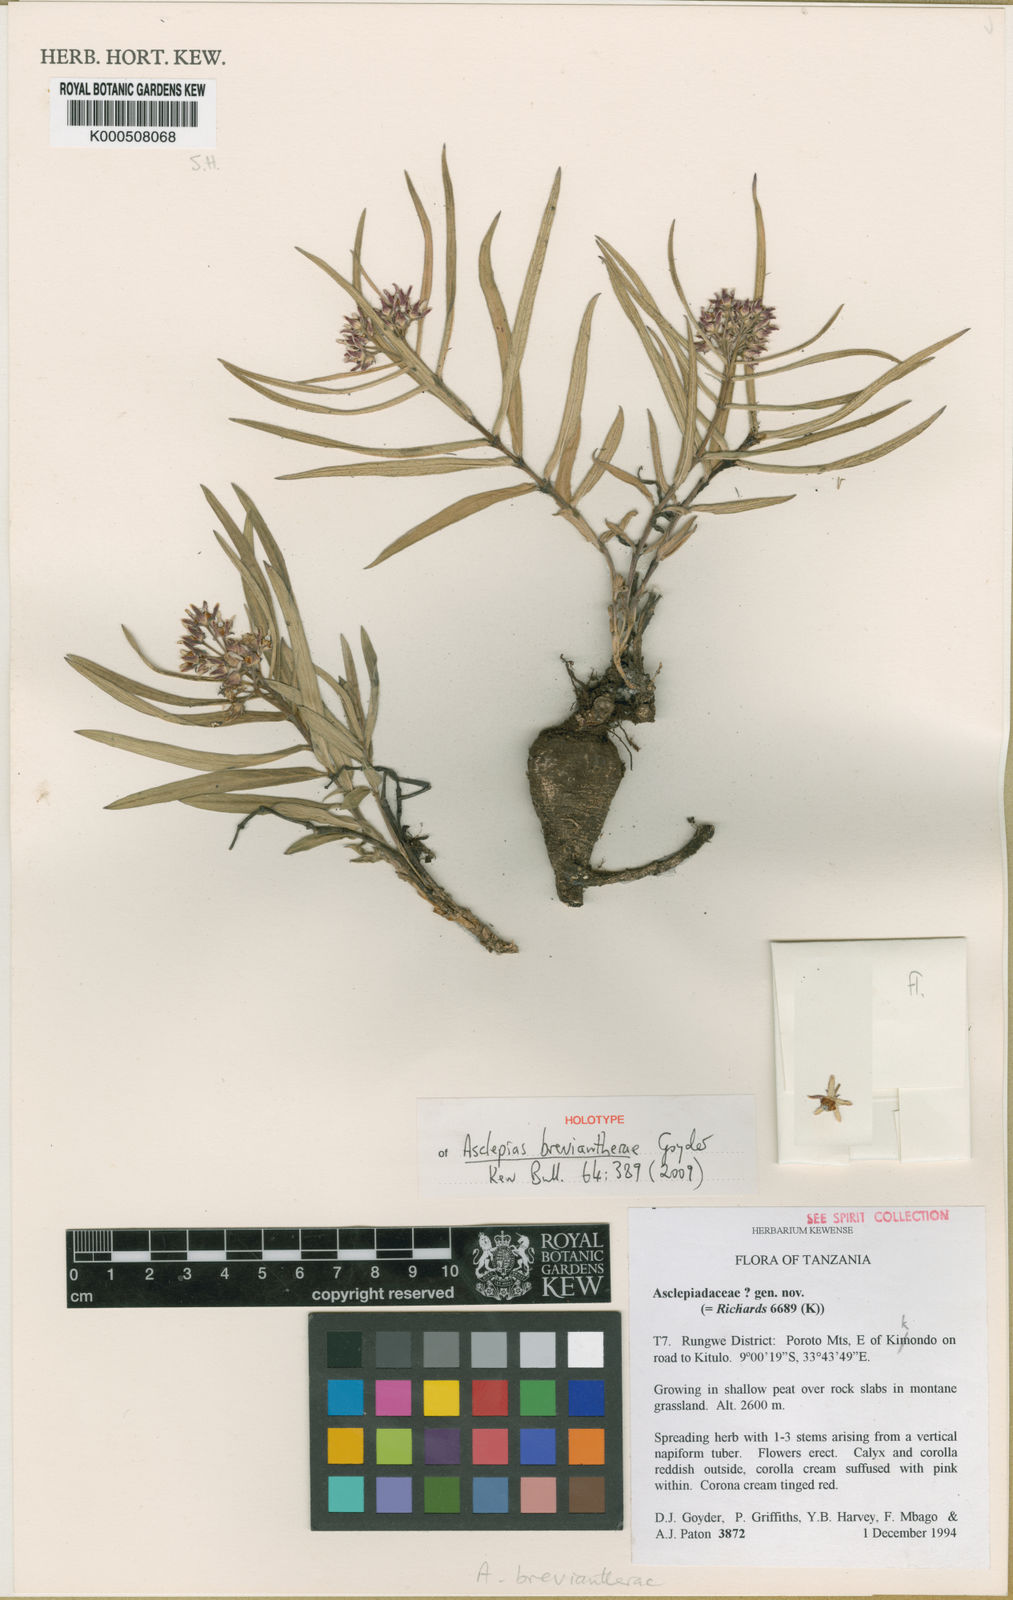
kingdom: Plantae
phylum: Tracheophyta
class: Magnoliopsida
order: Gentianales
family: Apocynaceae
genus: Asclepias
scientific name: Asclepias breviantherae
